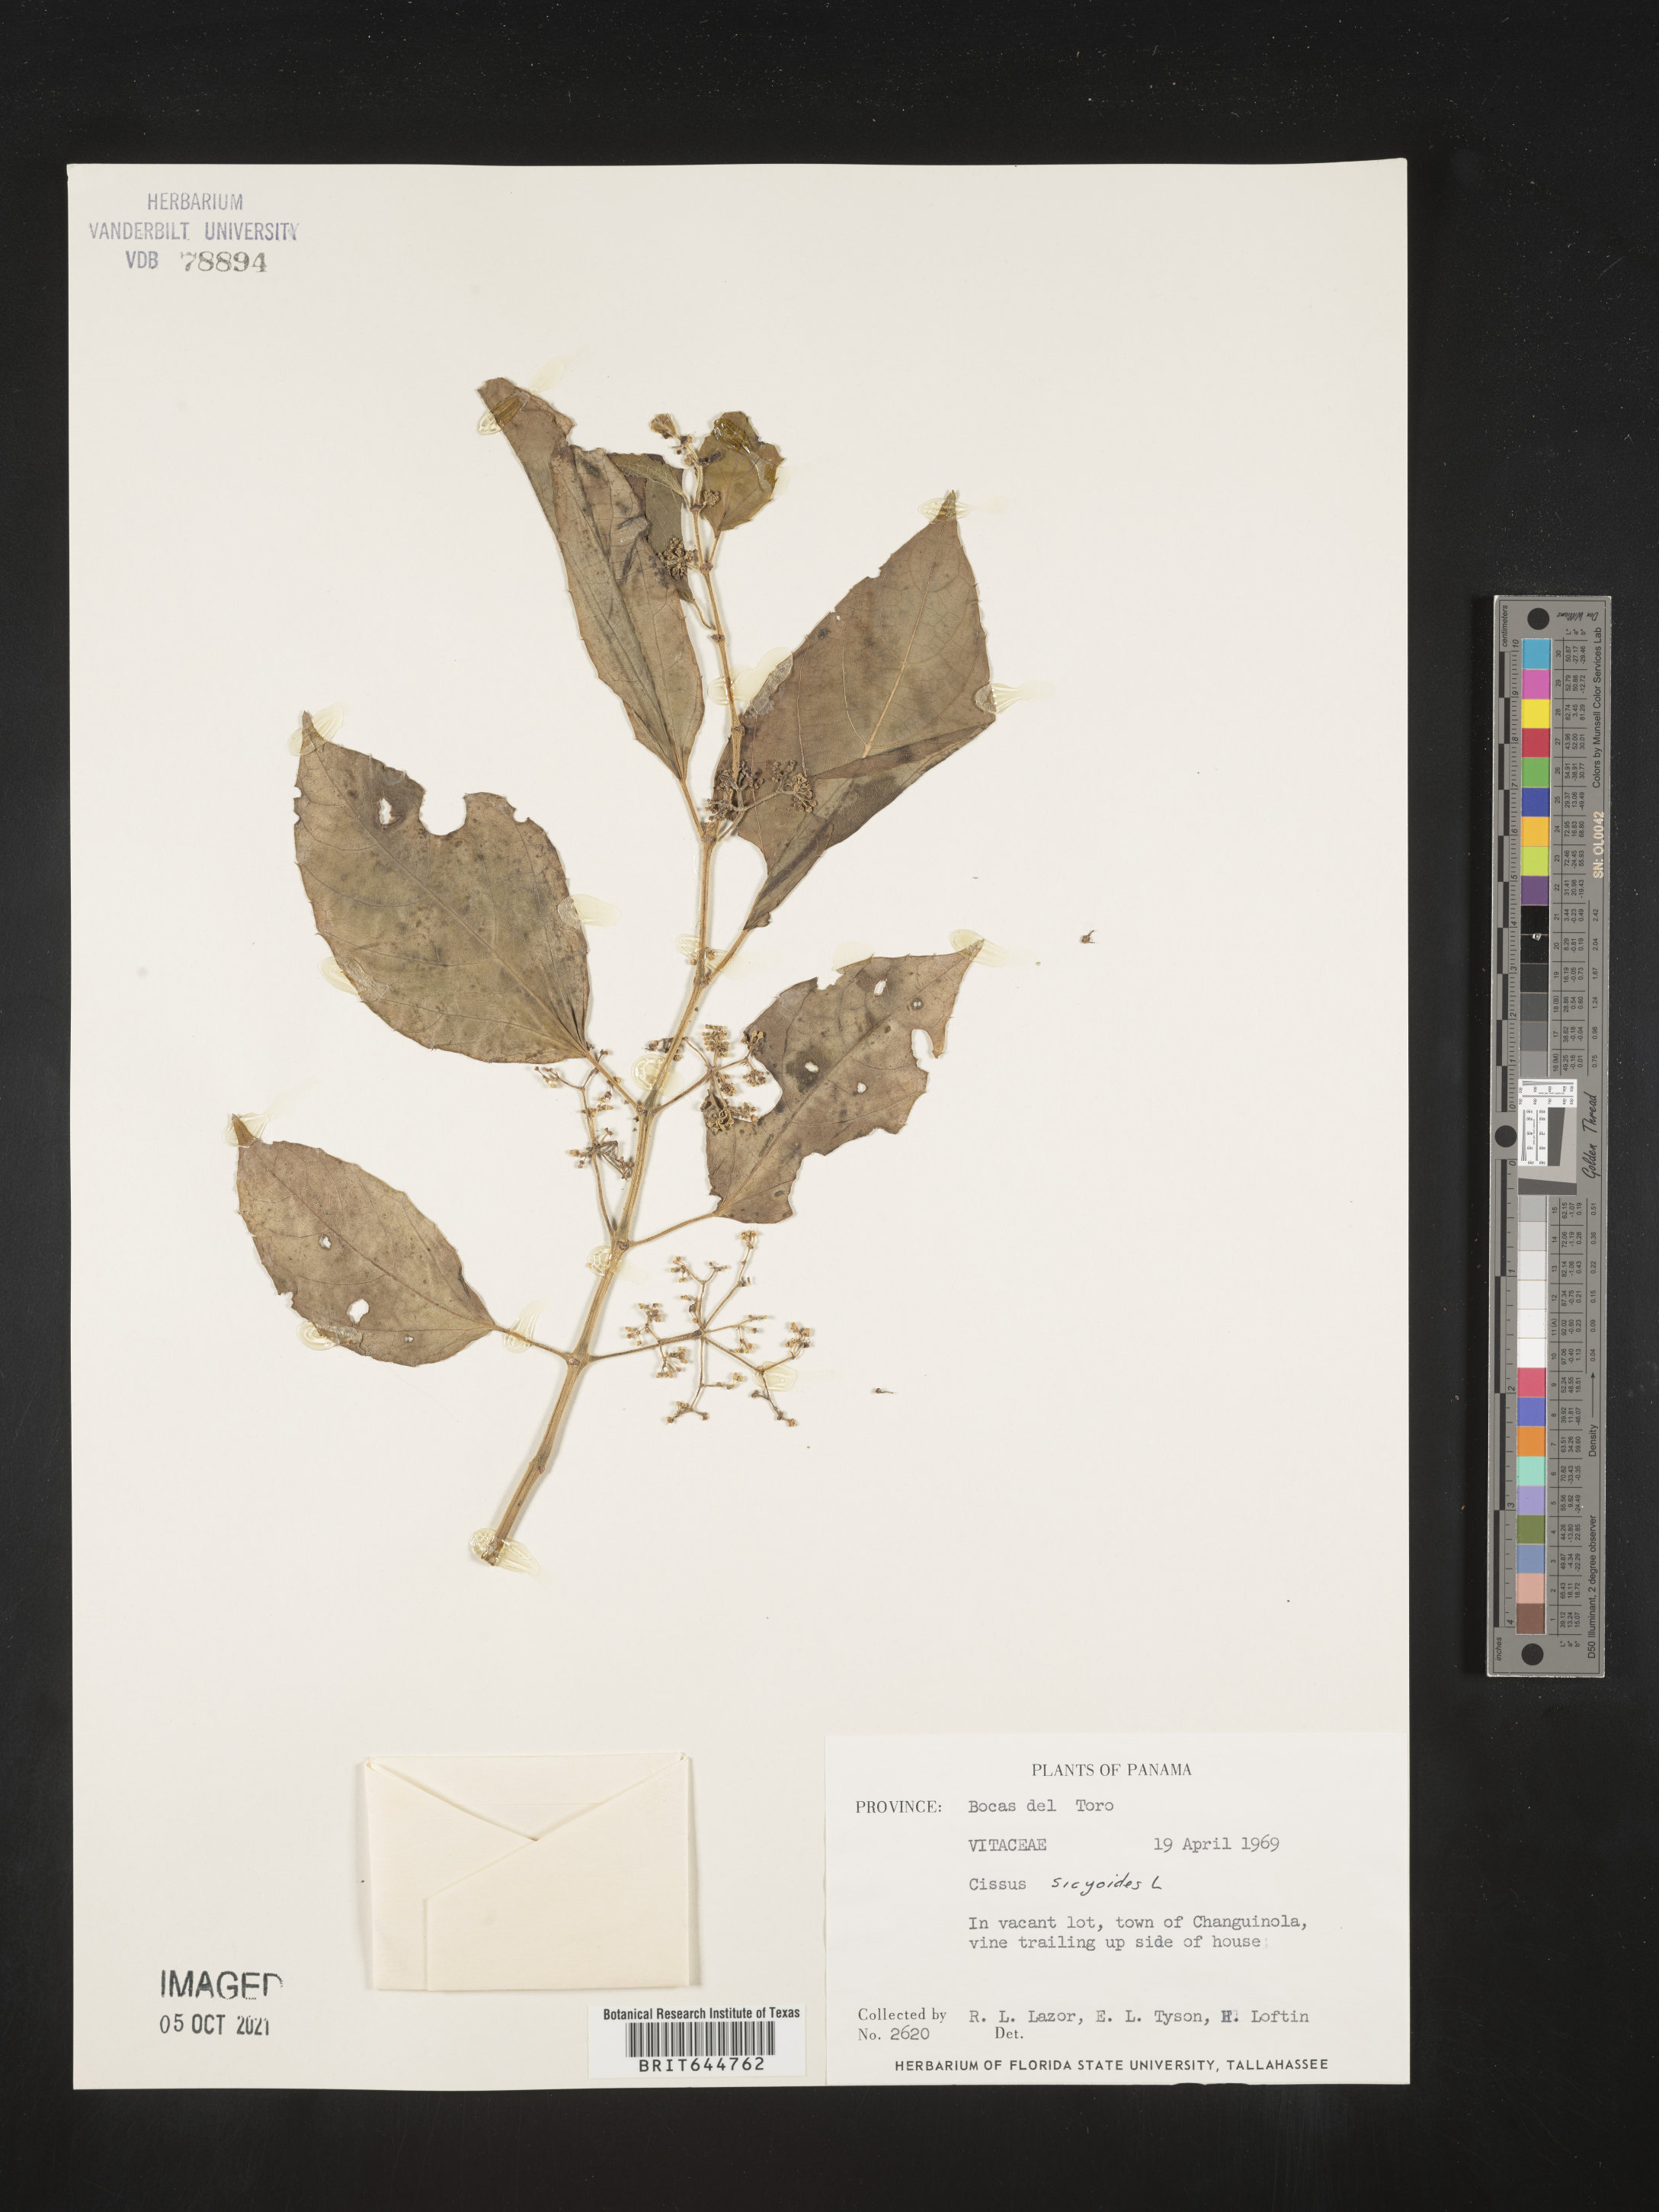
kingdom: Plantae
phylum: Tracheophyta
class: Magnoliopsida
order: Vitales
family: Vitaceae
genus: Cissus
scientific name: Cissus
